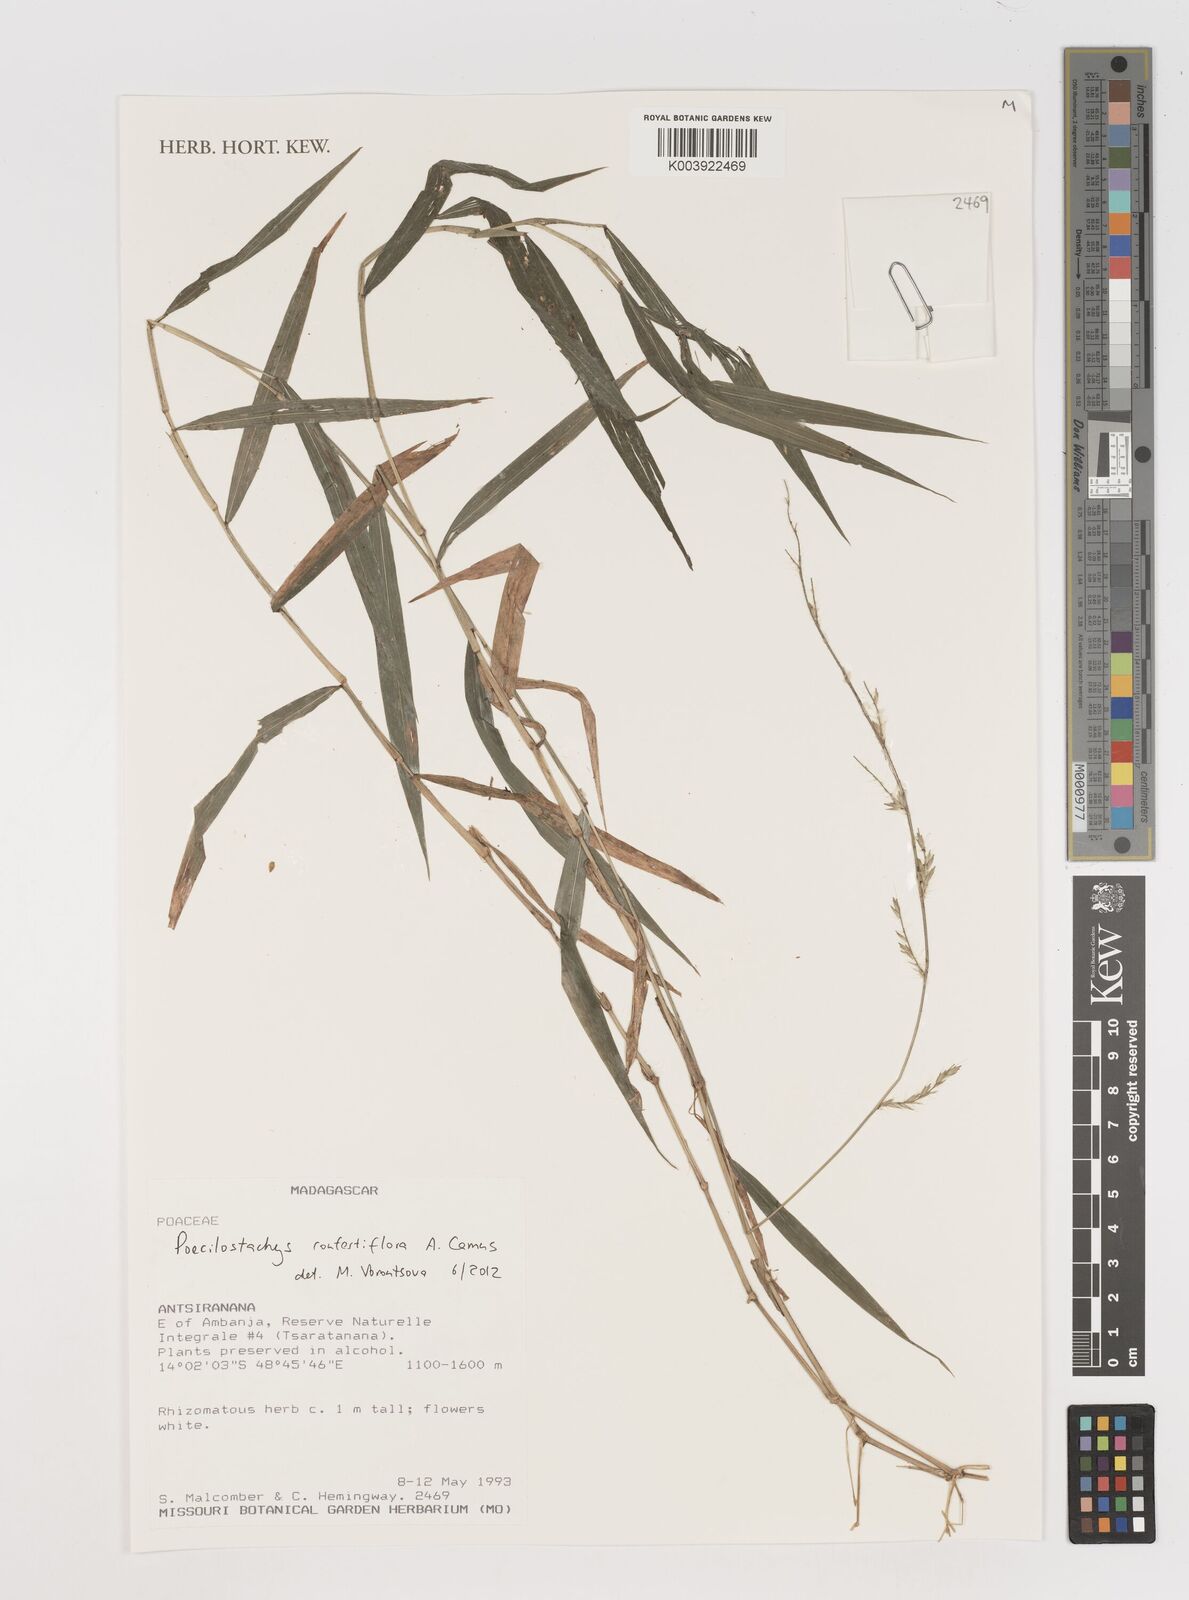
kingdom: Plantae
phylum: Tracheophyta
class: Liliopsida
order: Poales
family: Poaceae
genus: Poecilostachys
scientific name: Poecilostachys confertiflora
